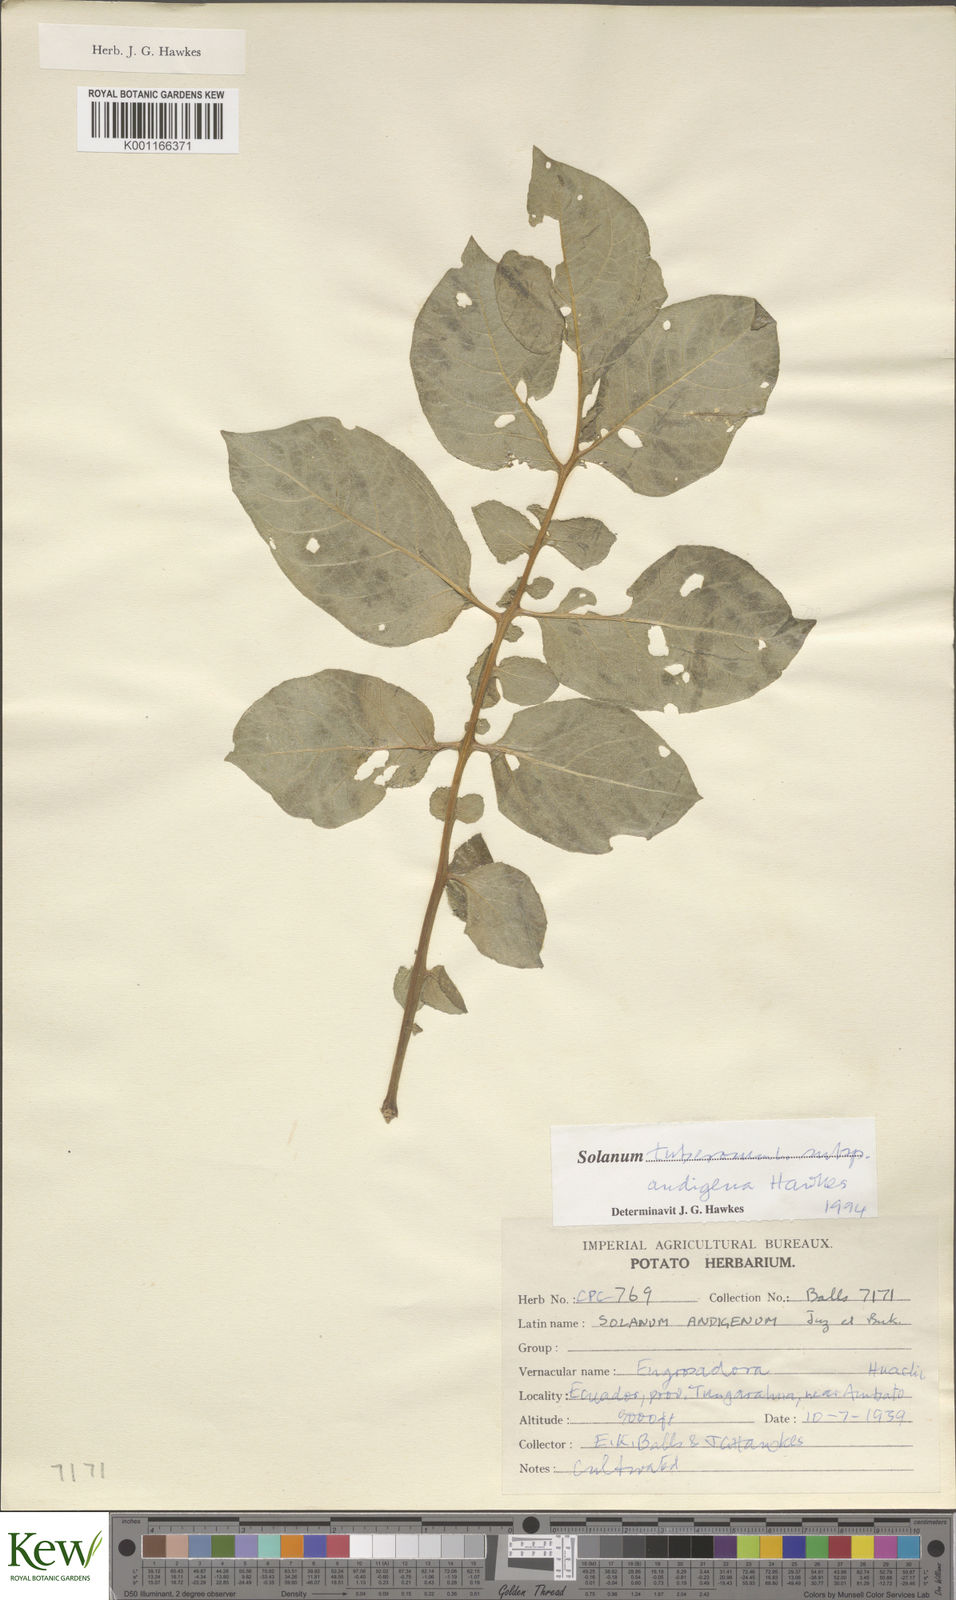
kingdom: Plantae
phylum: Tracheophyta
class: Magnoliopsida
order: Solanales
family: Solanaceae
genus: Solanum
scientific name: Solanum tuberosum
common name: Potato
